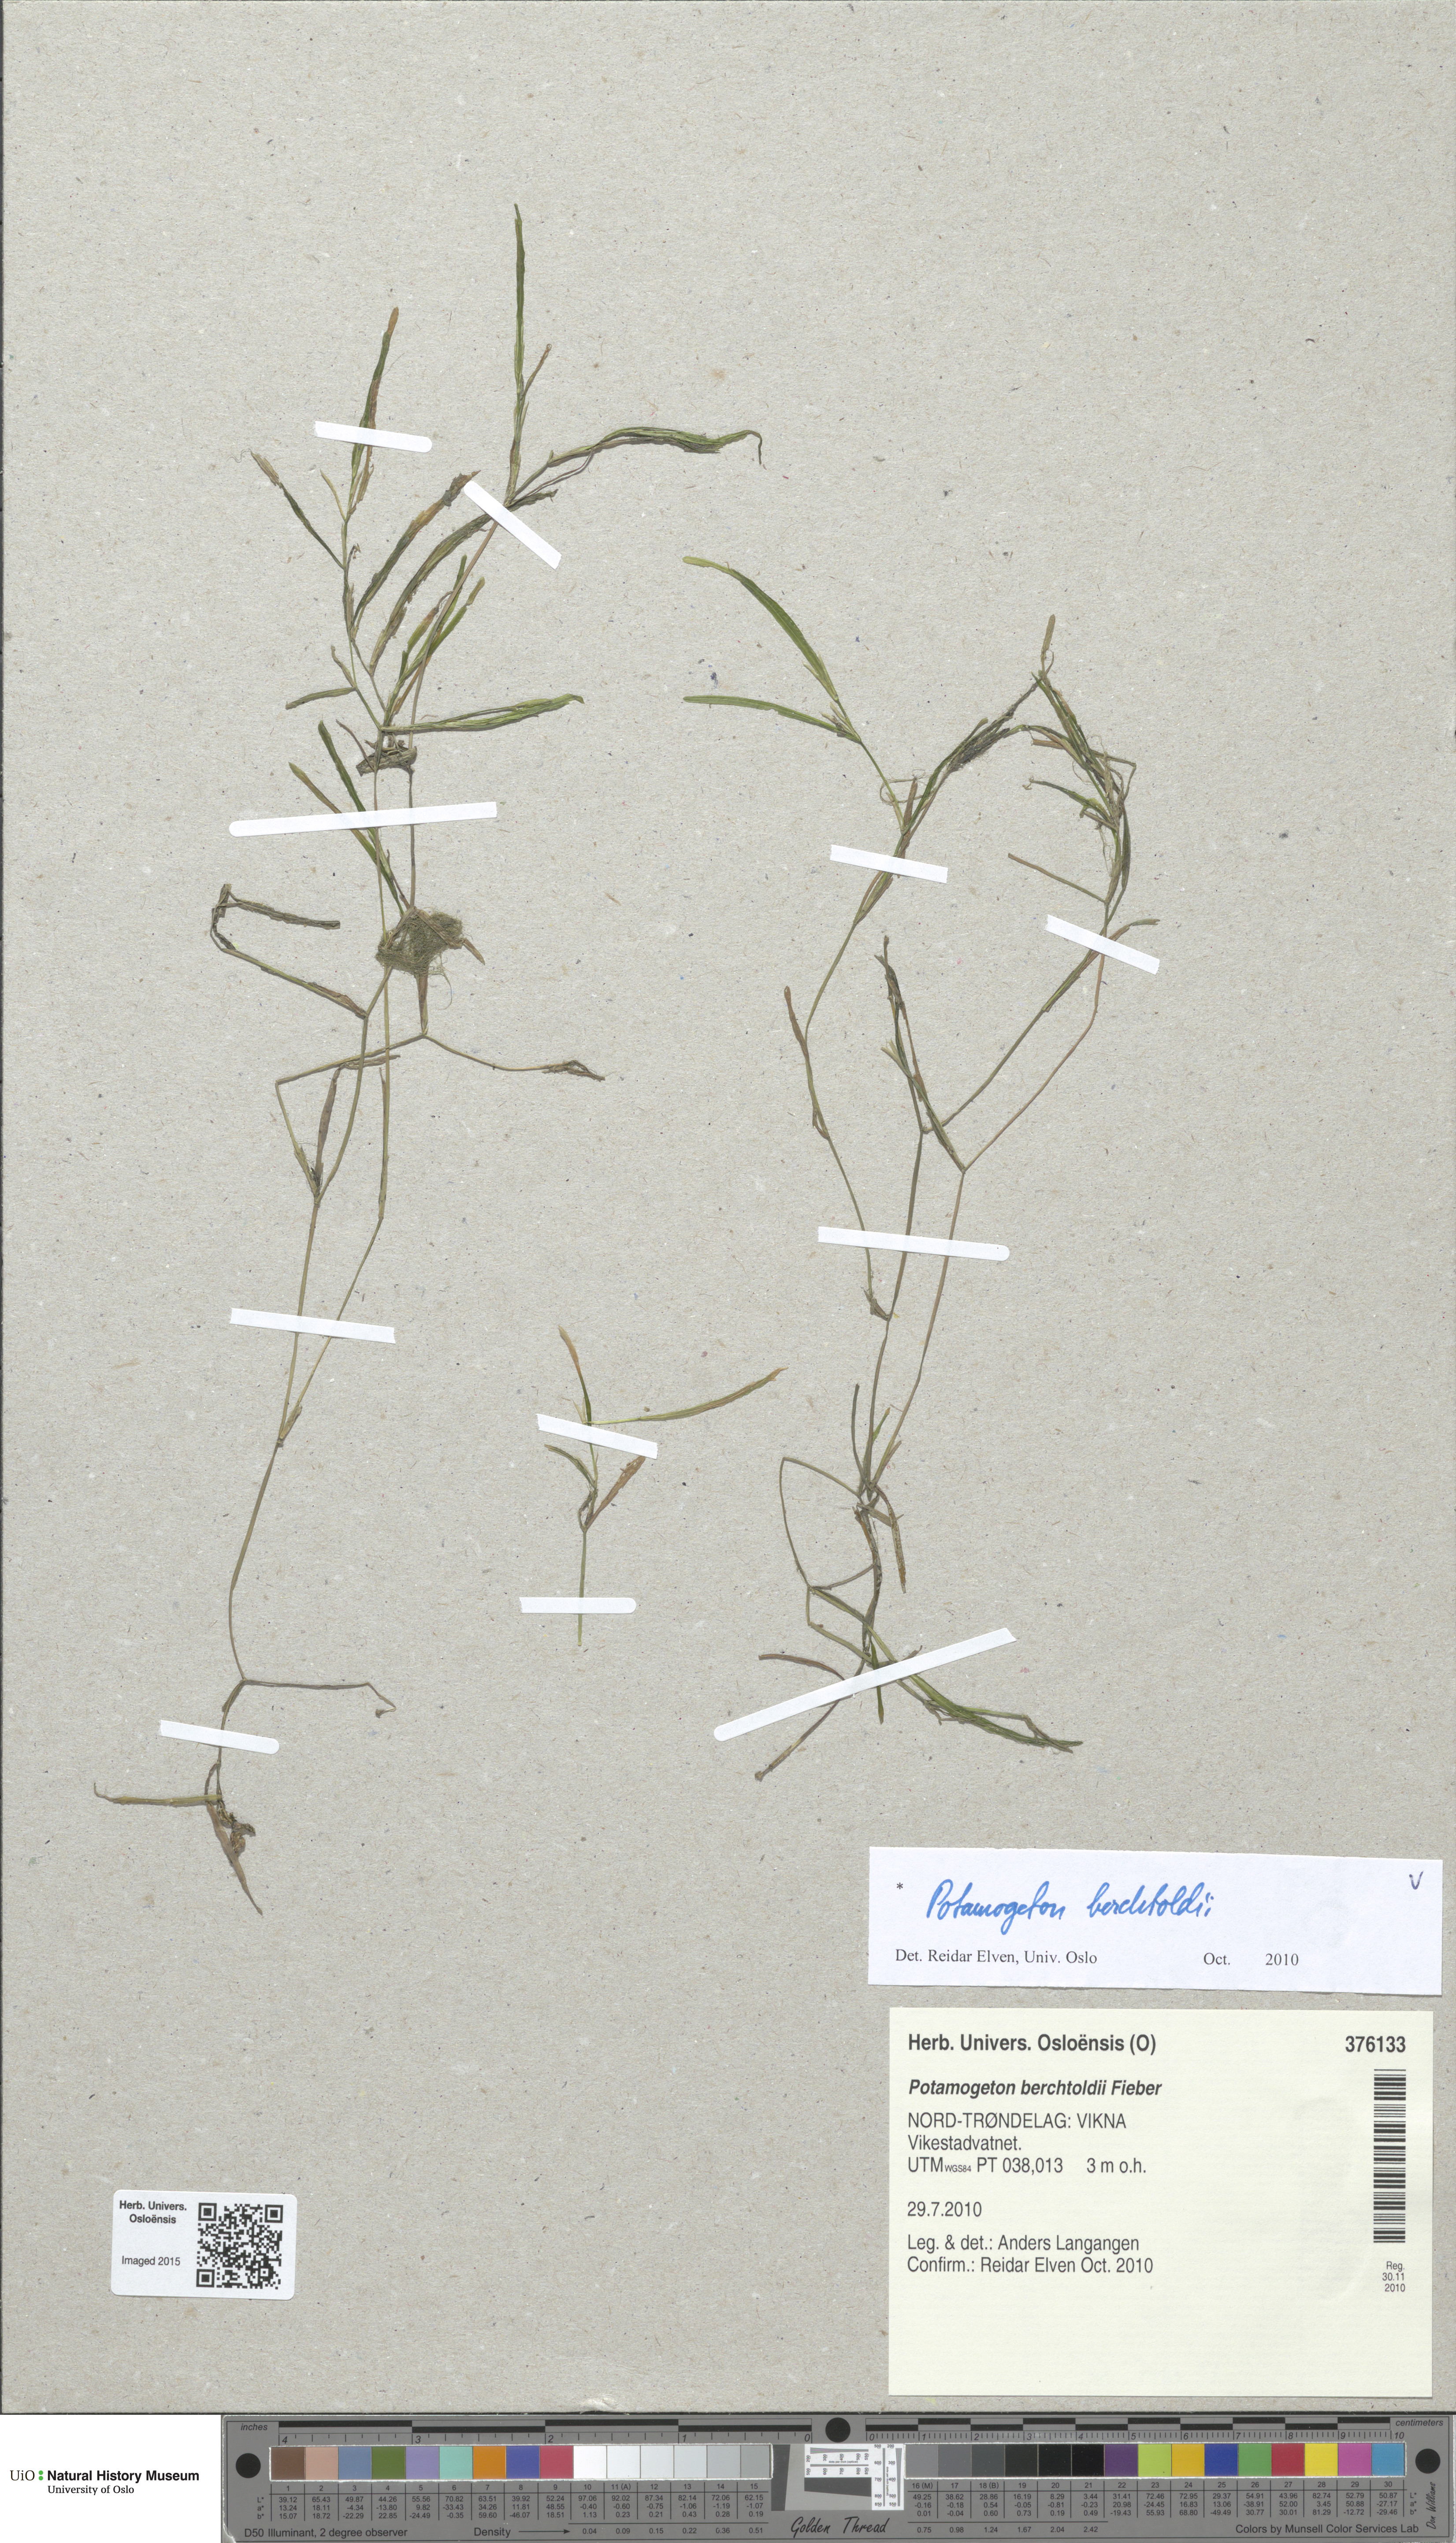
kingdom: Plantae
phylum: Tracheophyta
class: Liliopsida
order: Alismatales
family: Potamogetonaceae
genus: Potamogeton
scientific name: Potamogeton friesii
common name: Flat-stalked pondweed
